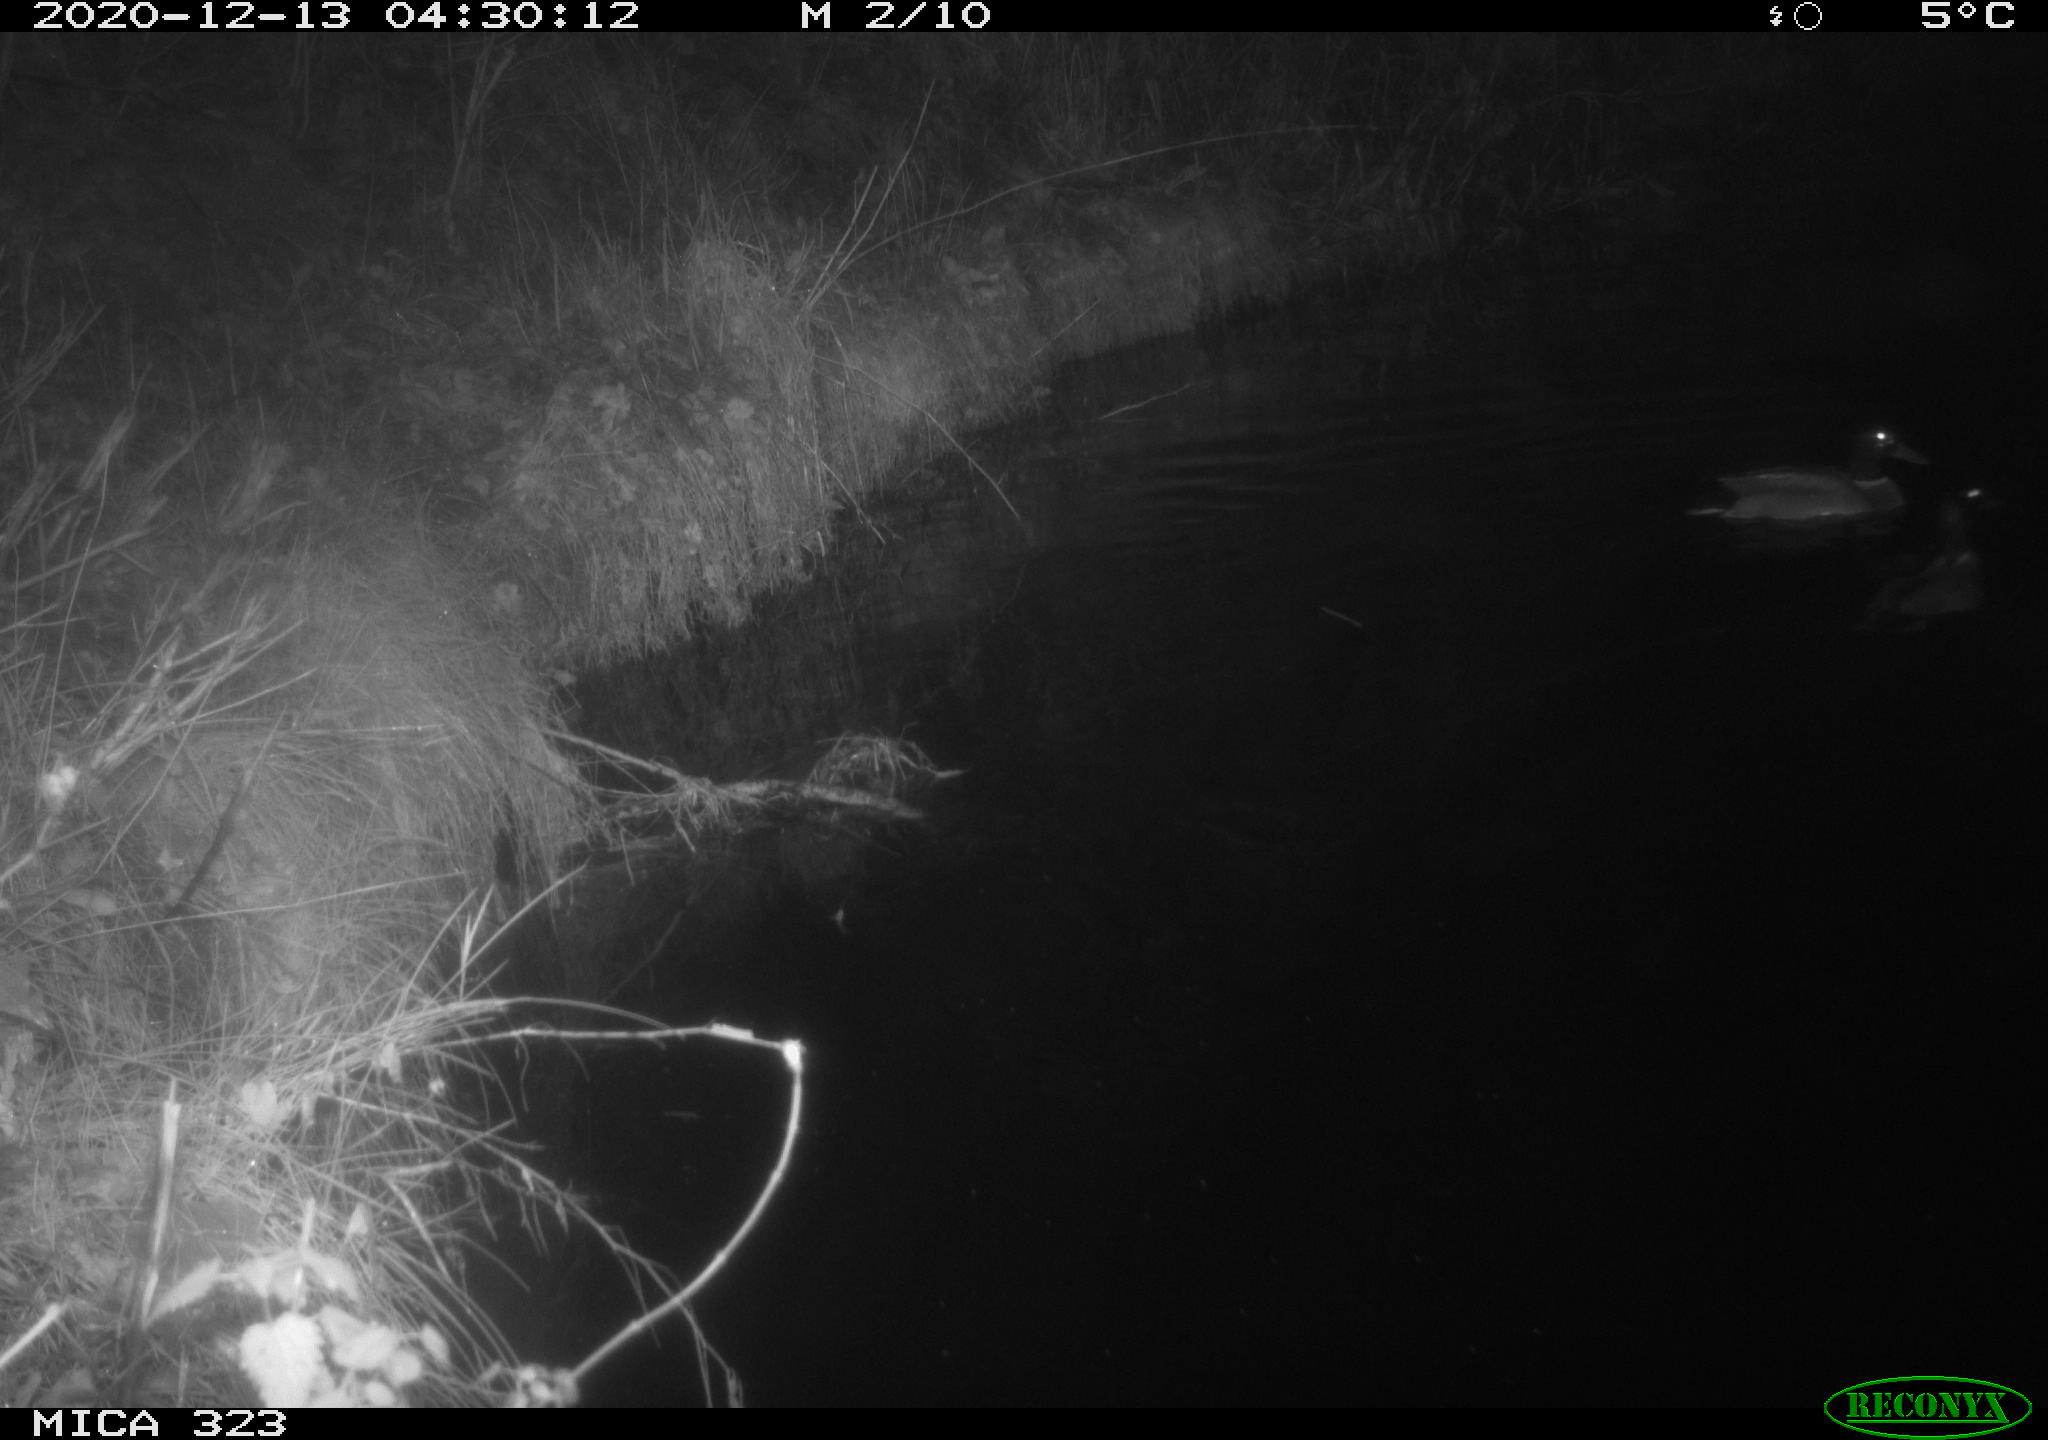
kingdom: Animalia
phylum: Chordata
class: Aves
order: Anseriformes
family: Anatidae
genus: Anas
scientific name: Anas platyrhynchos
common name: Mallard
